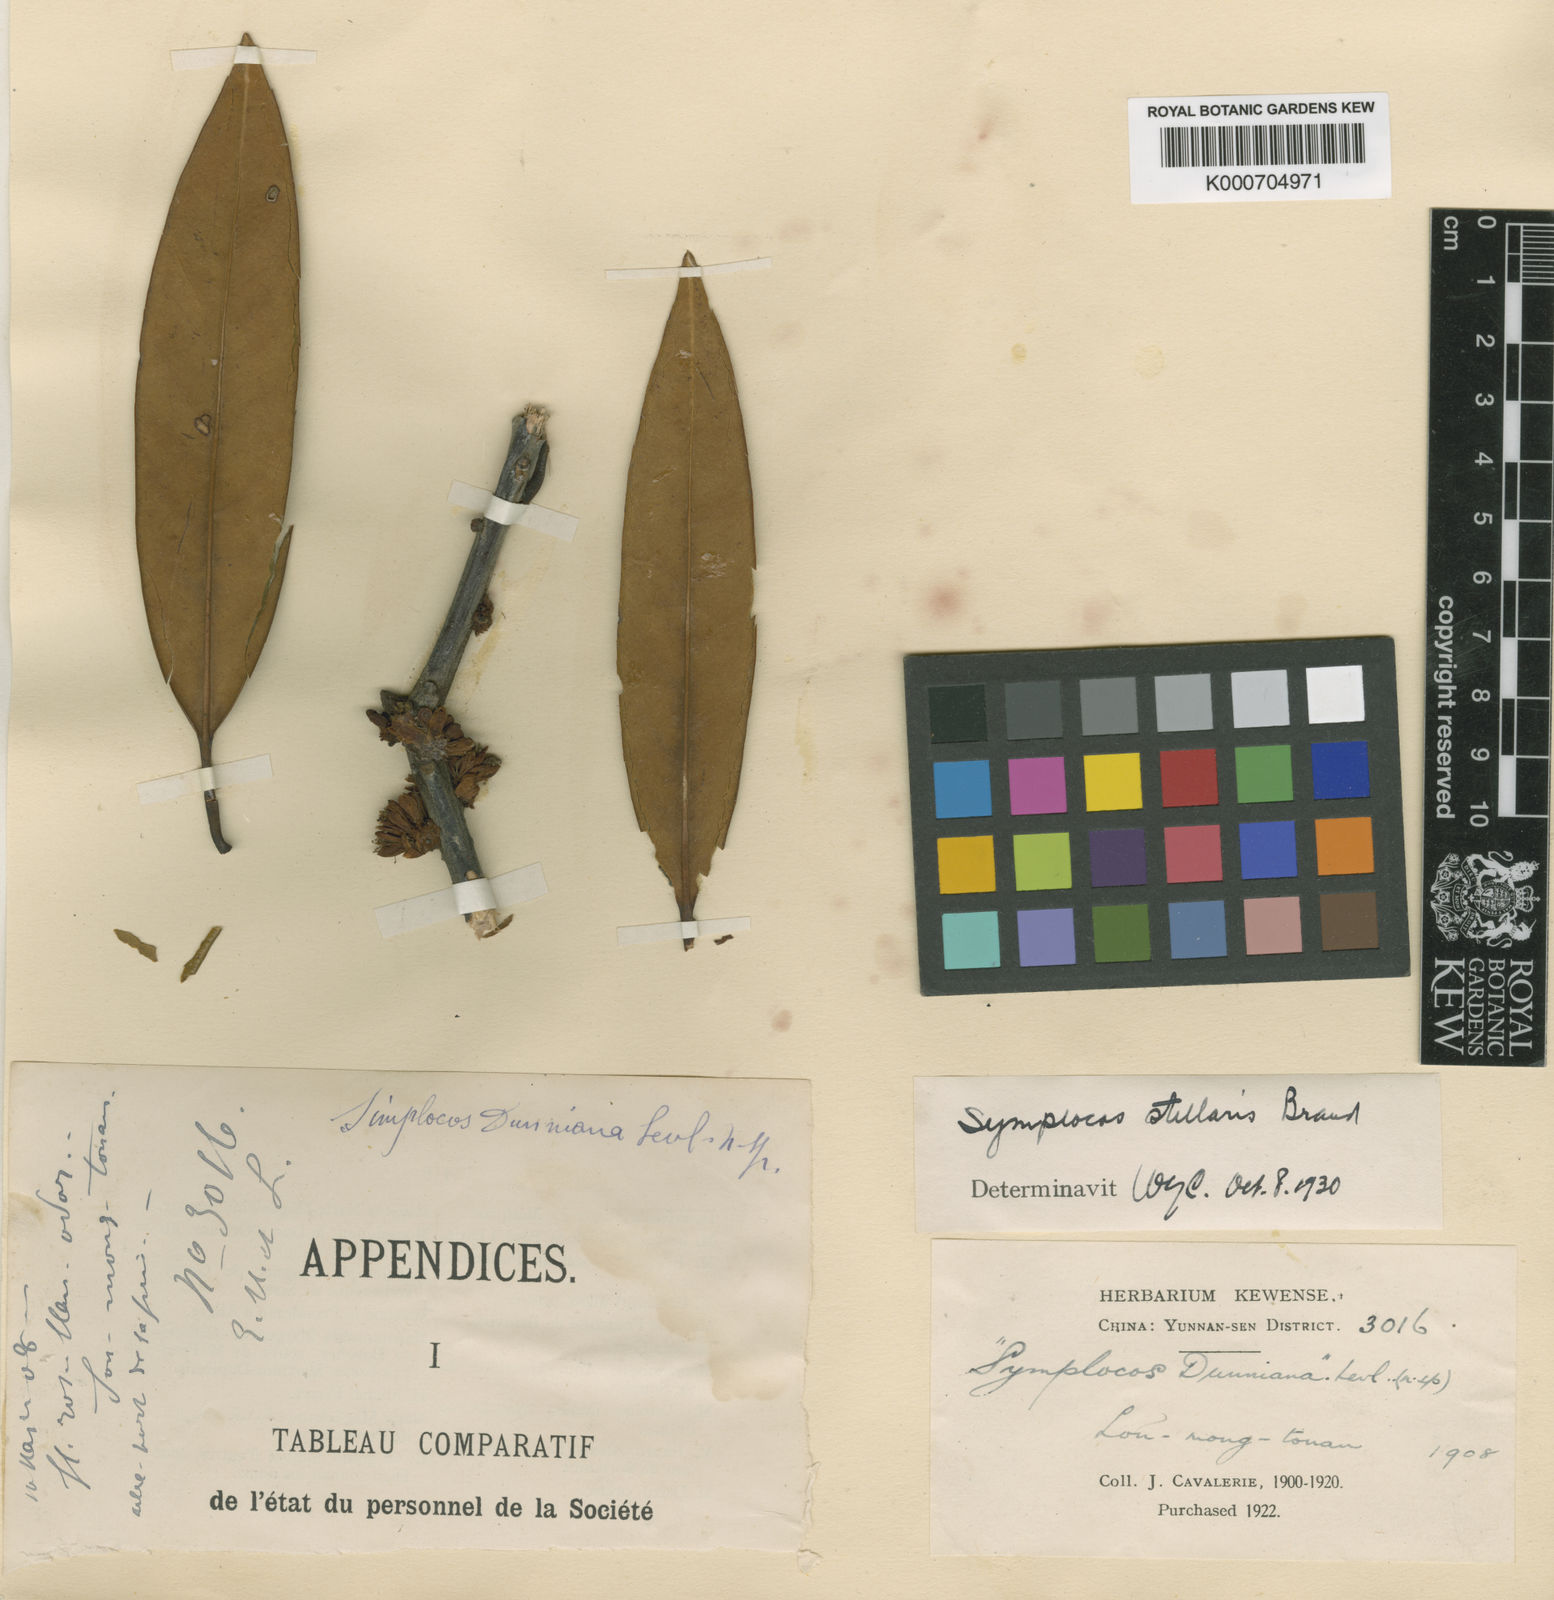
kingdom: Plantae
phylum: Tracheophyta
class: Magnoliopsida
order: Ericales
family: Symplocaceae
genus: Symplocos
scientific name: Symplocos stellaris
